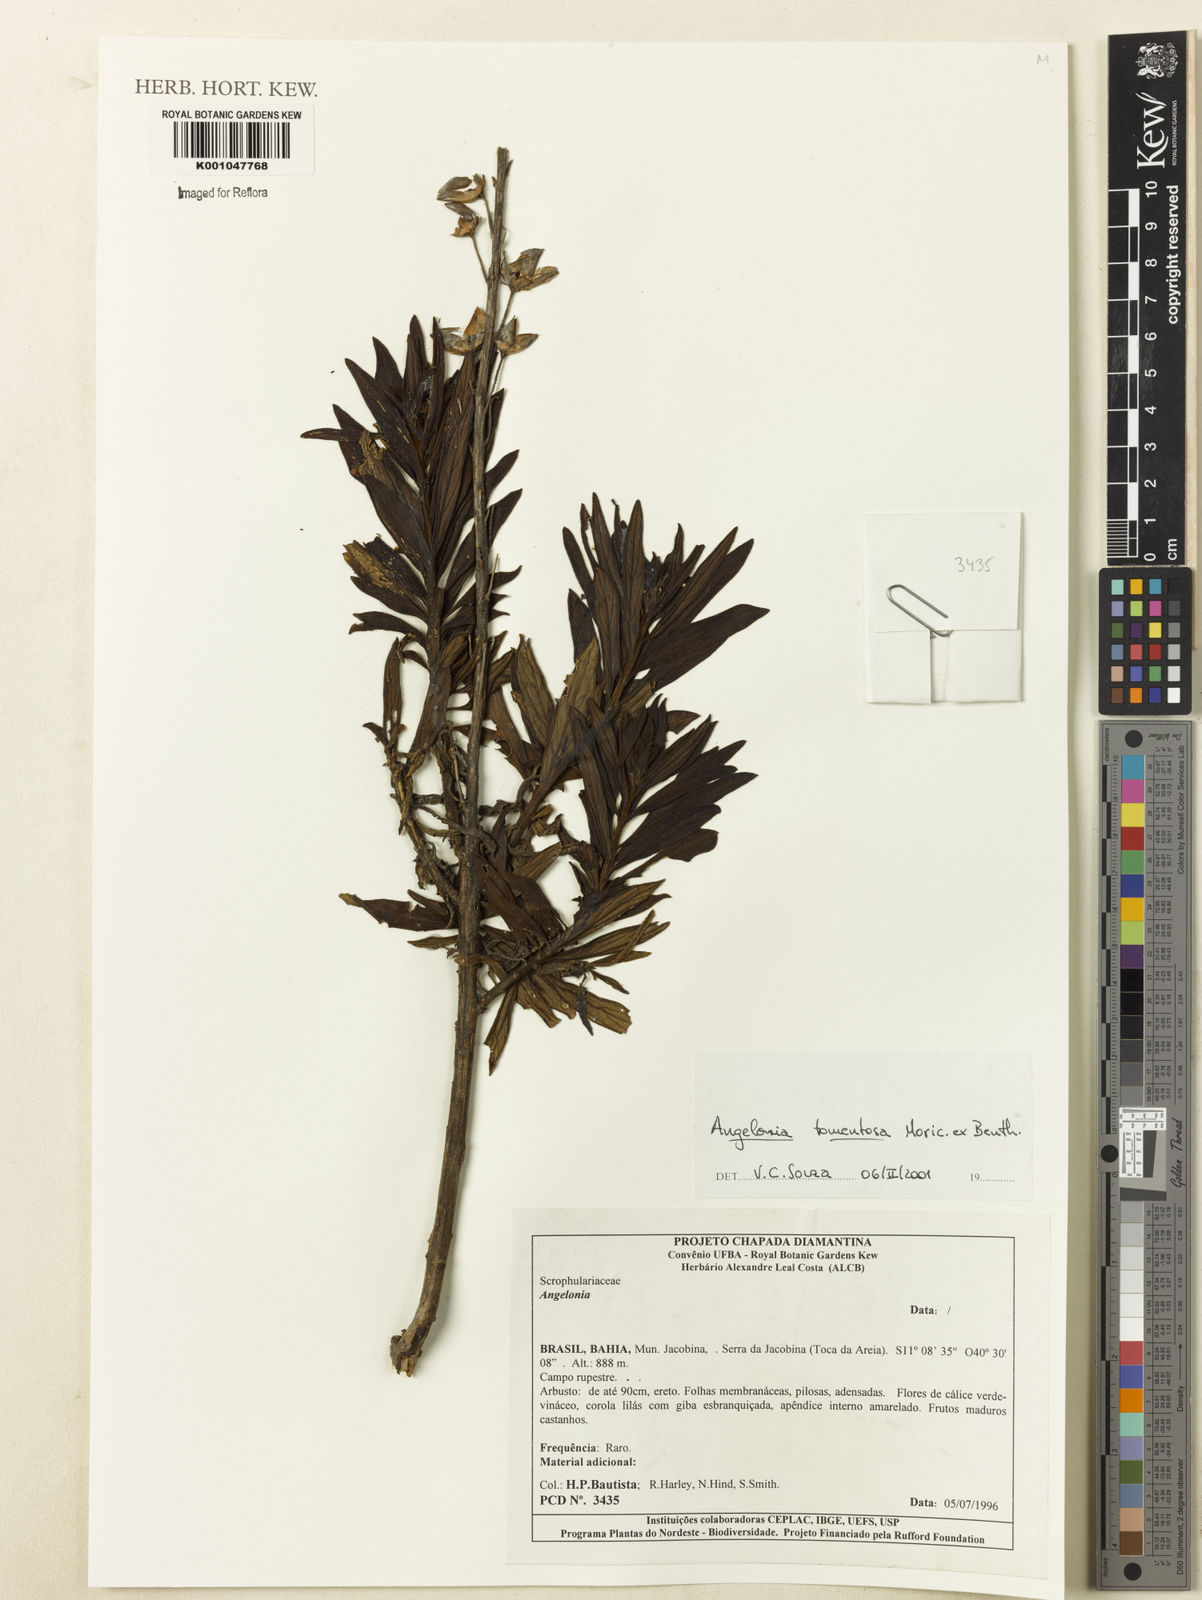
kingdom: Plantae
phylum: Tracheophyta
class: Magnoliopsida
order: Lamiales
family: Plantaginaceae
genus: Angelonia
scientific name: Angelonia tomentosa
